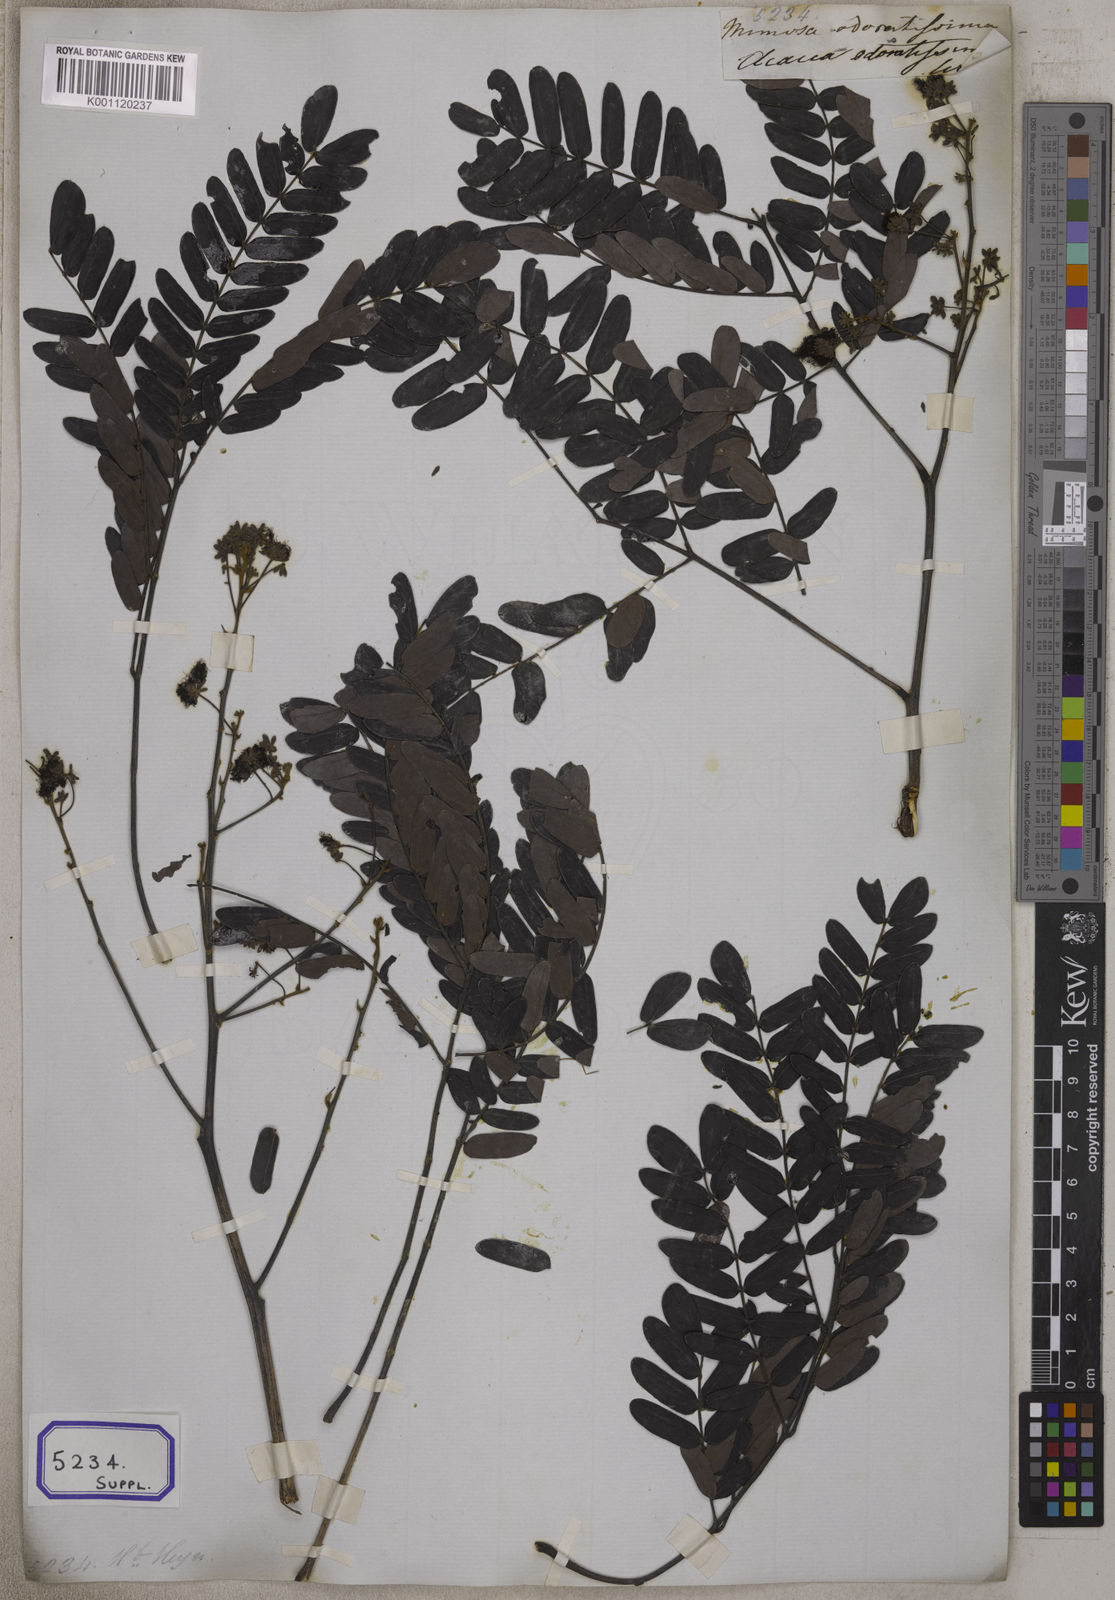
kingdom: Plantae
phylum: Tracheophyta
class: Magnoliopsida
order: Fabales
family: Fabaceae
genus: Albizia
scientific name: Albizia odoratissima
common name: Ceylon rosewood
